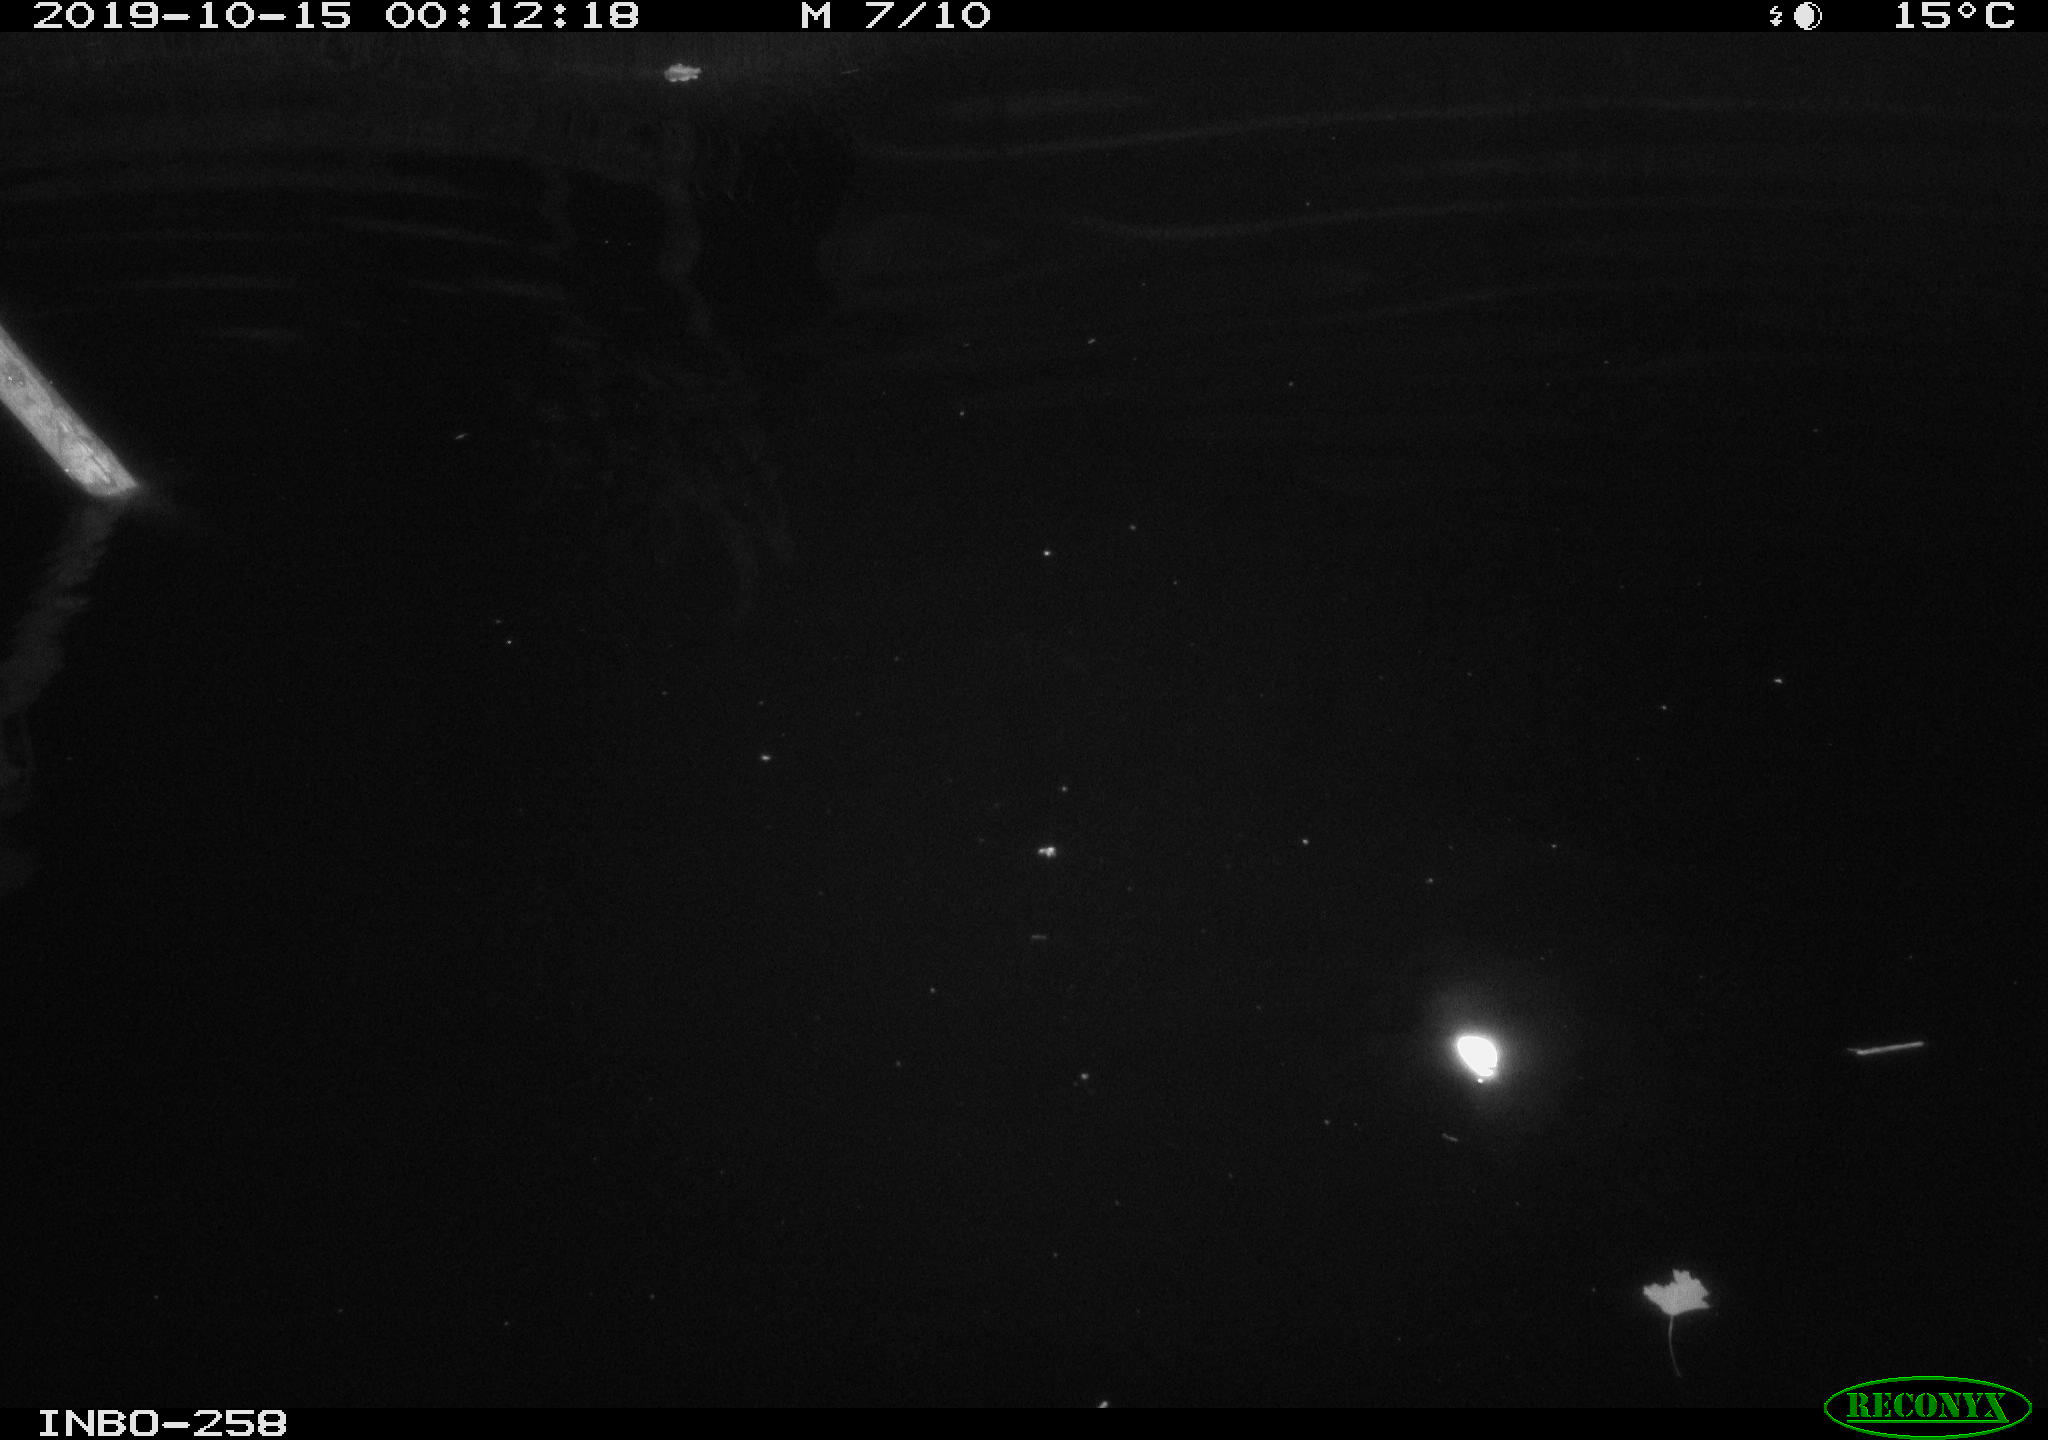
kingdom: Animalia
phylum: Chordata
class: Mammalia
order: Rodentia
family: Muridae
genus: Rattus
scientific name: Rattus norvegicus
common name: Brown rat
